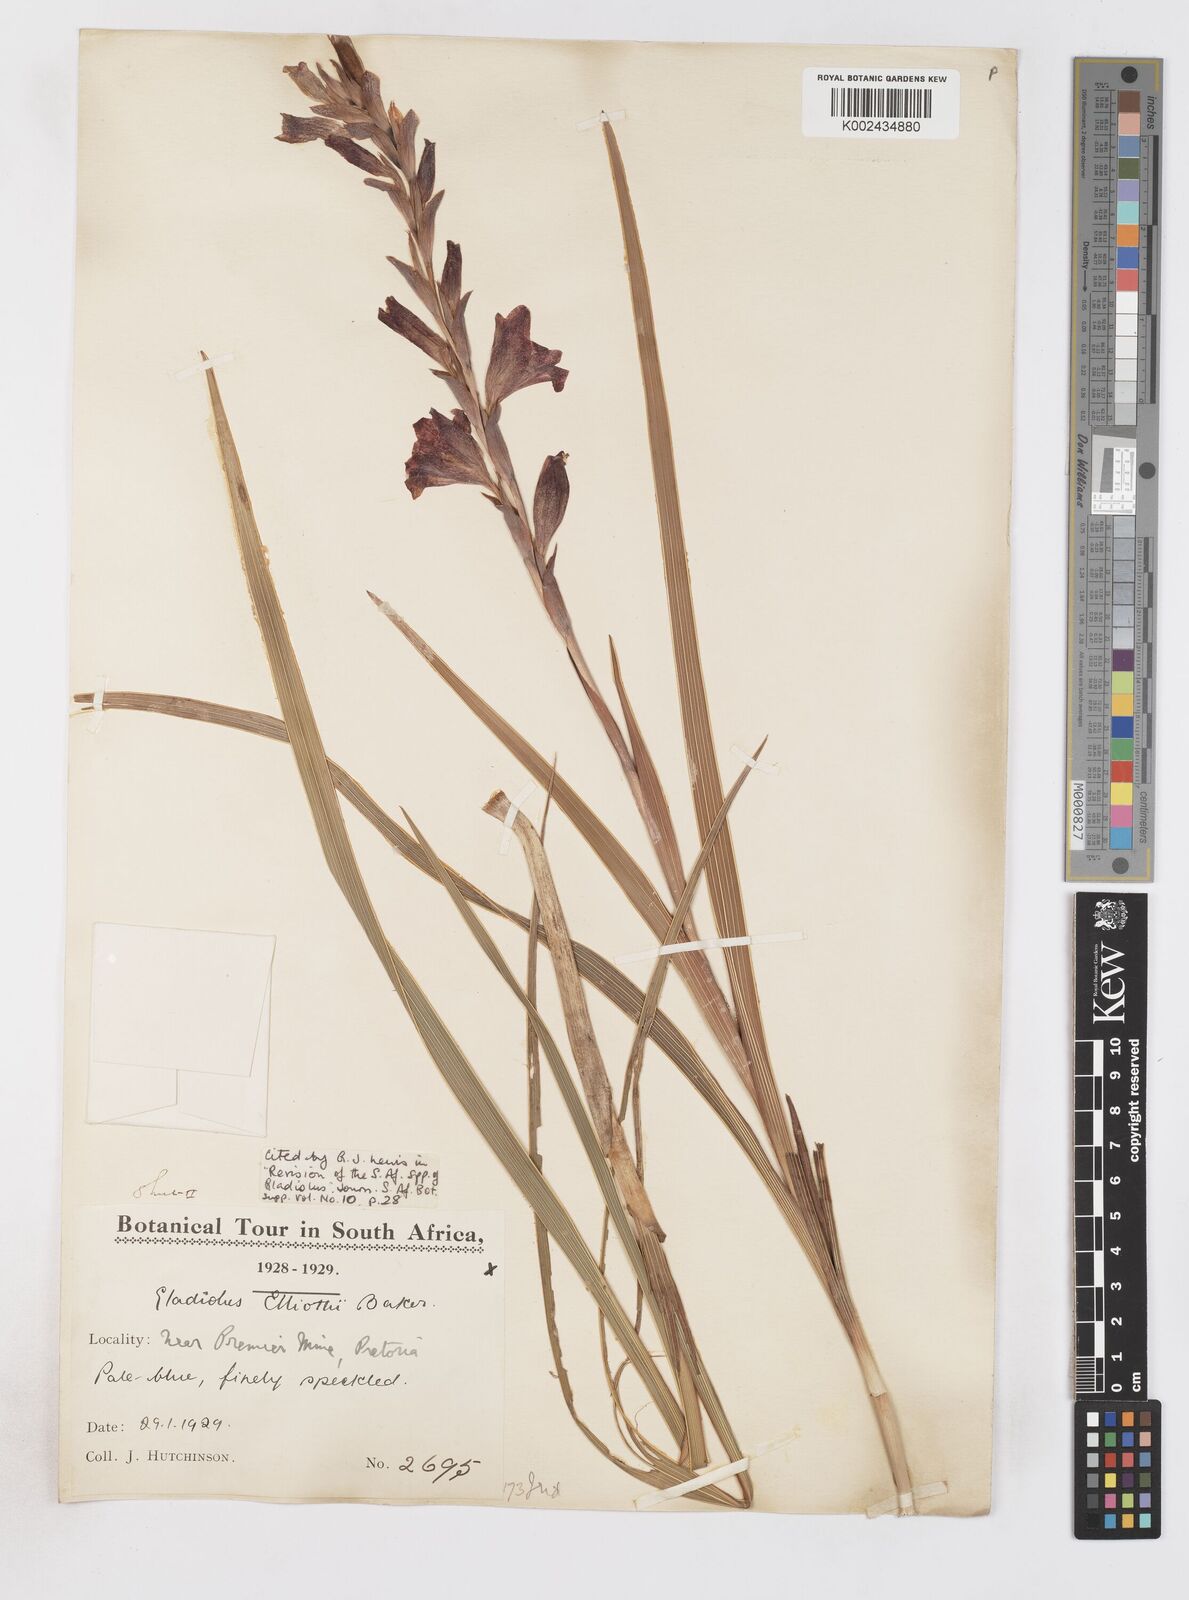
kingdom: Plantae
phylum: Tracheophyta
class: Liliopsida
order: Asparagales
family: Iridaceae
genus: Gladiolus
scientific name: Gladiolus elliotii
